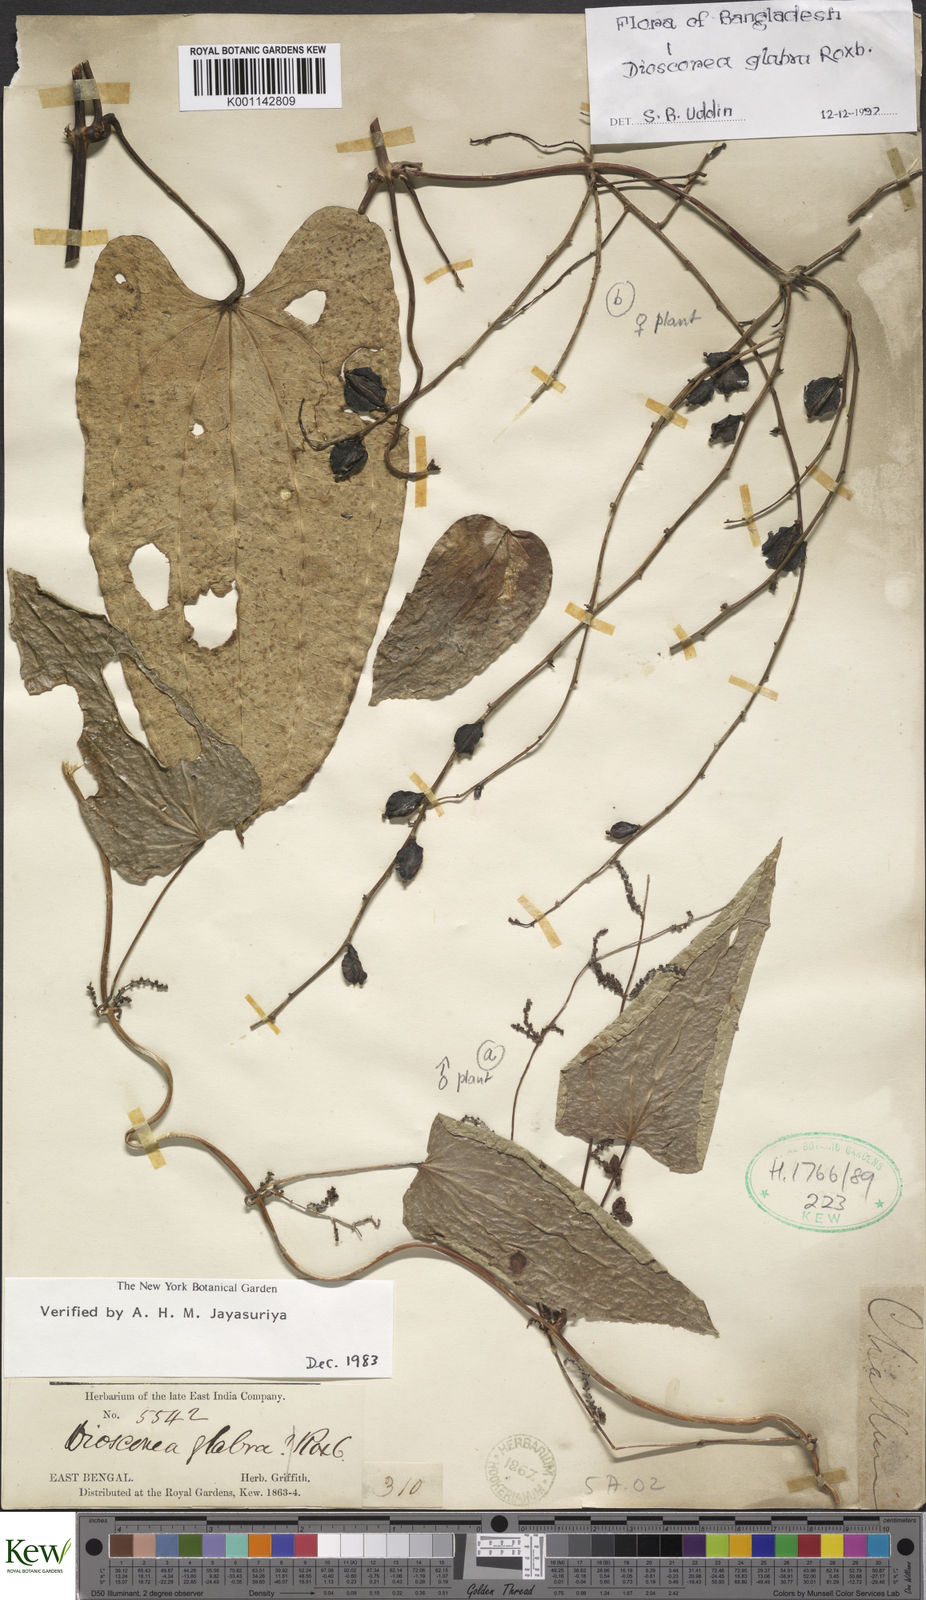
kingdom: Plantae
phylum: Tracheophyta
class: Liliopsida
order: Dioscoreales
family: Dioscoreaceae
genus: Dioscorea
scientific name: Dioscorea glabra
